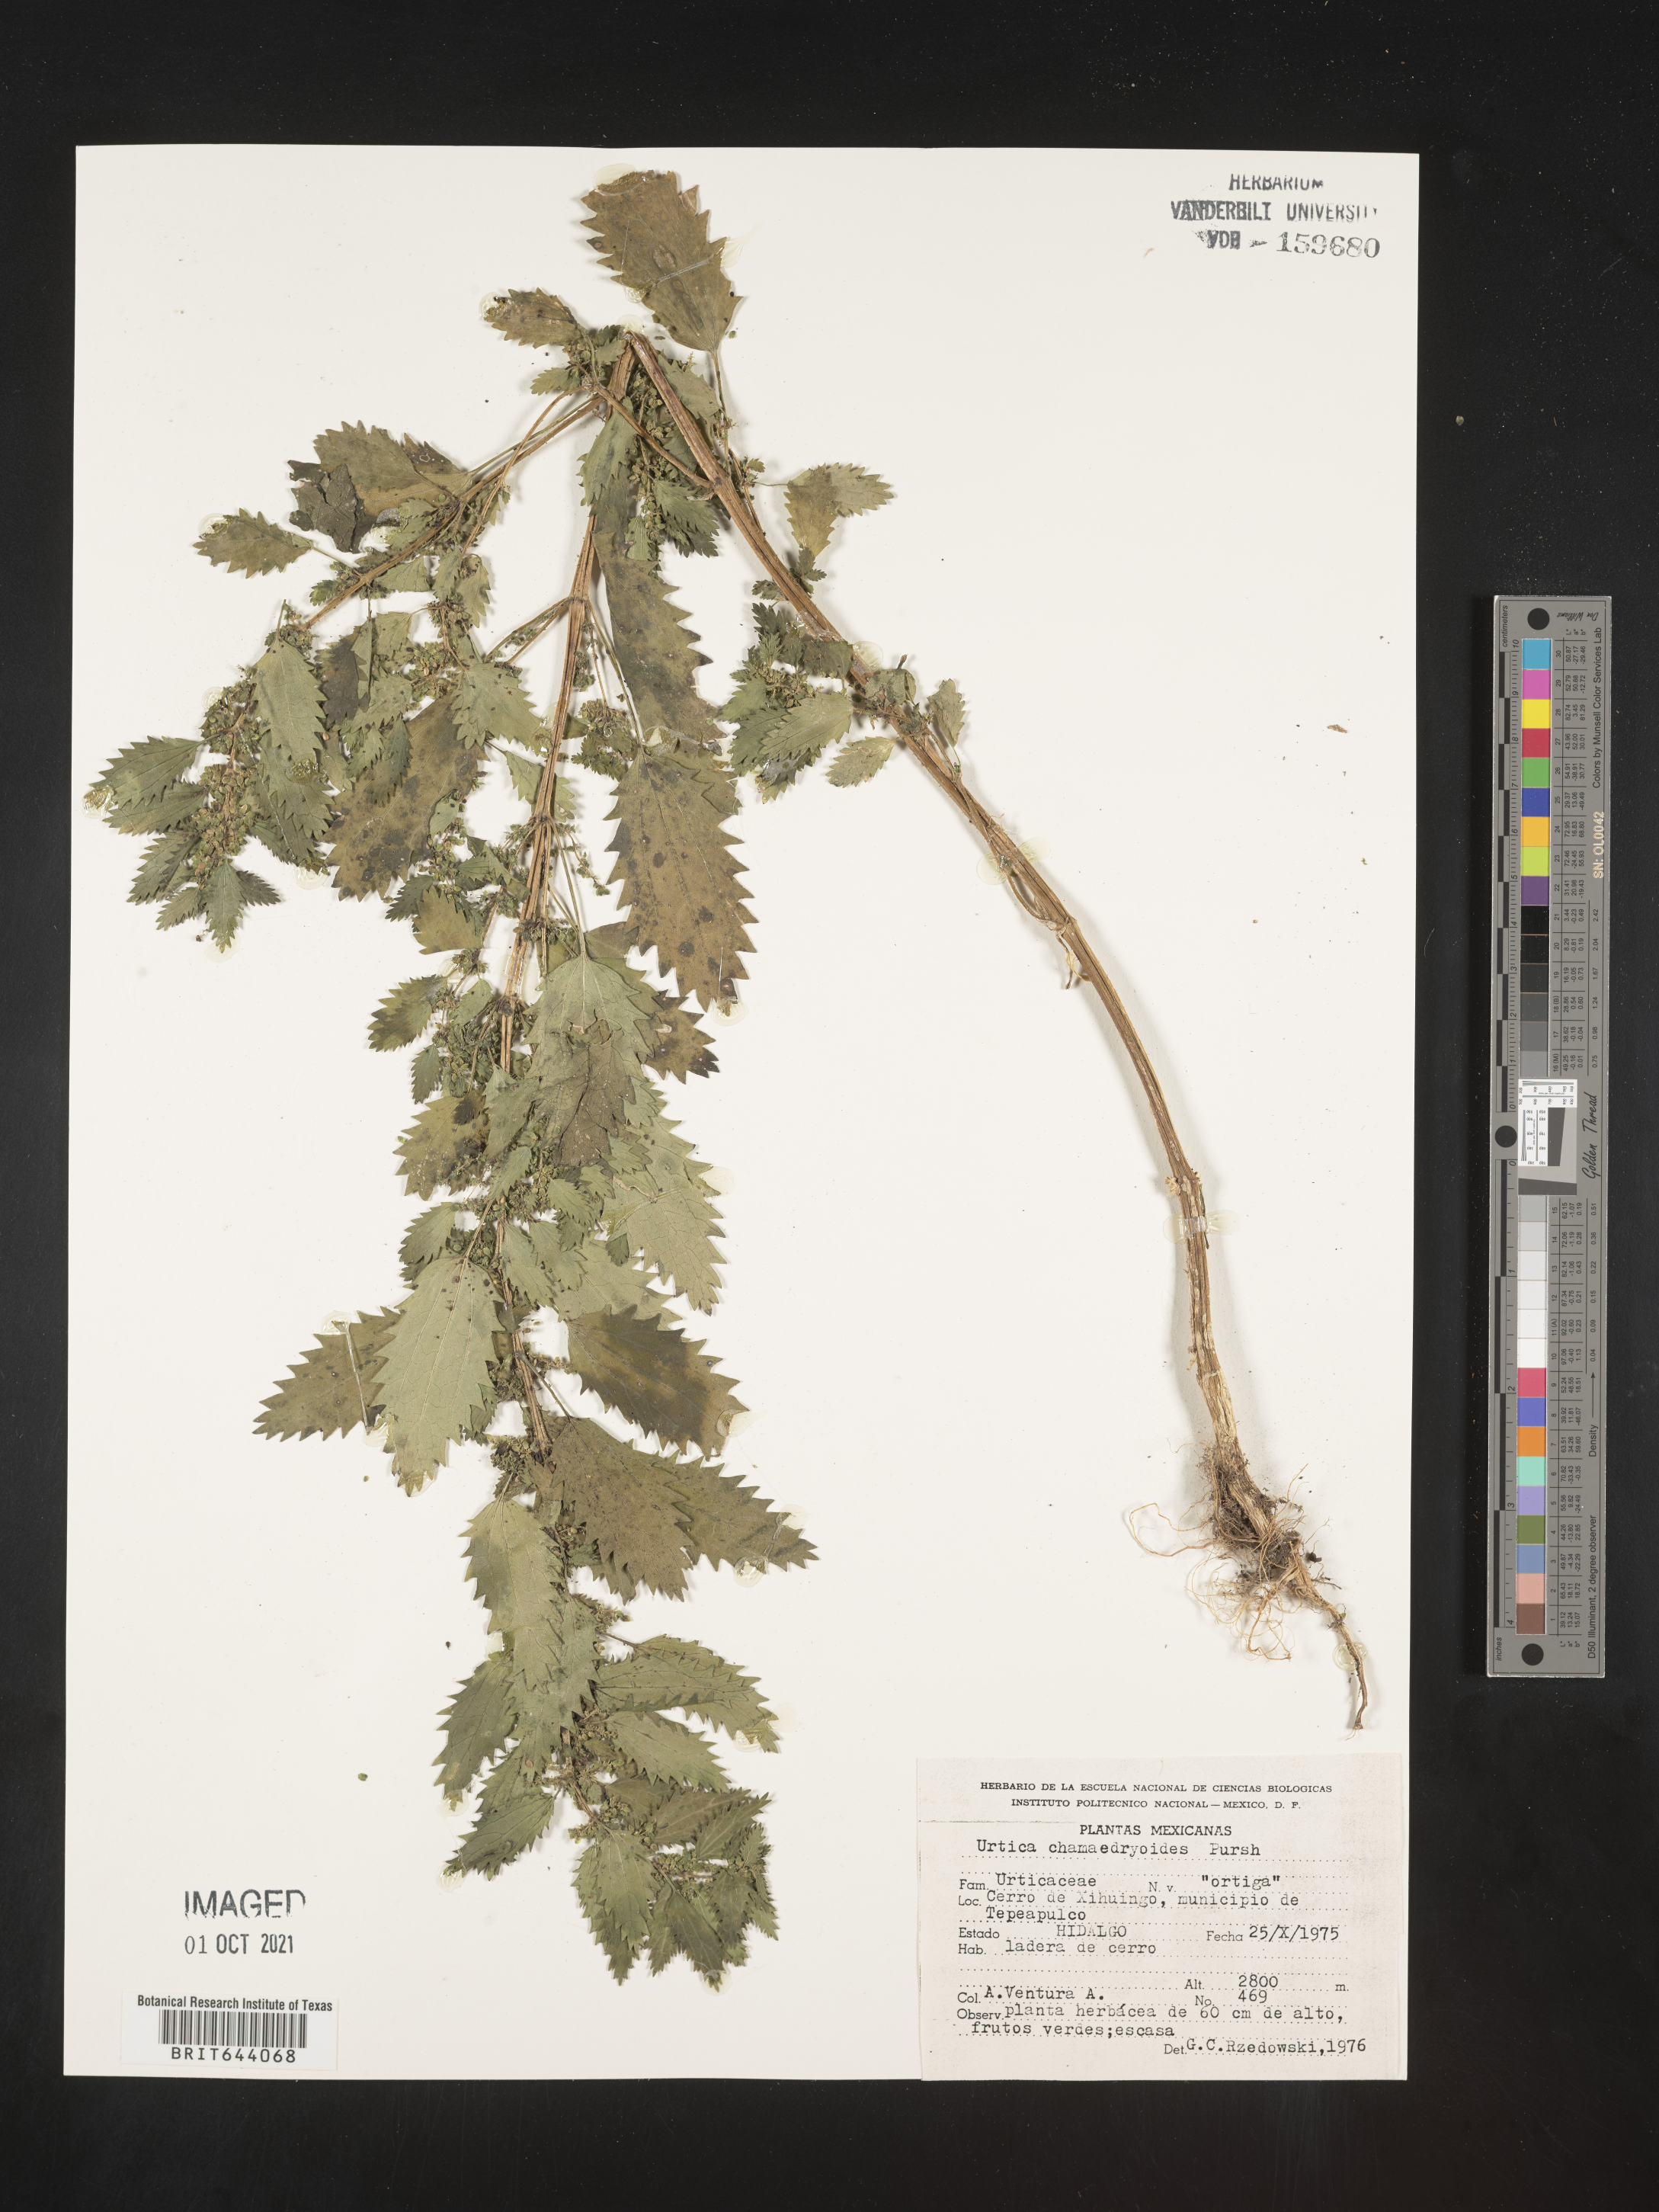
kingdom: Plantae
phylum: Tracheophyta
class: Magnoliopsida
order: Rosales
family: Urticaceae
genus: Urtica
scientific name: Urtica
